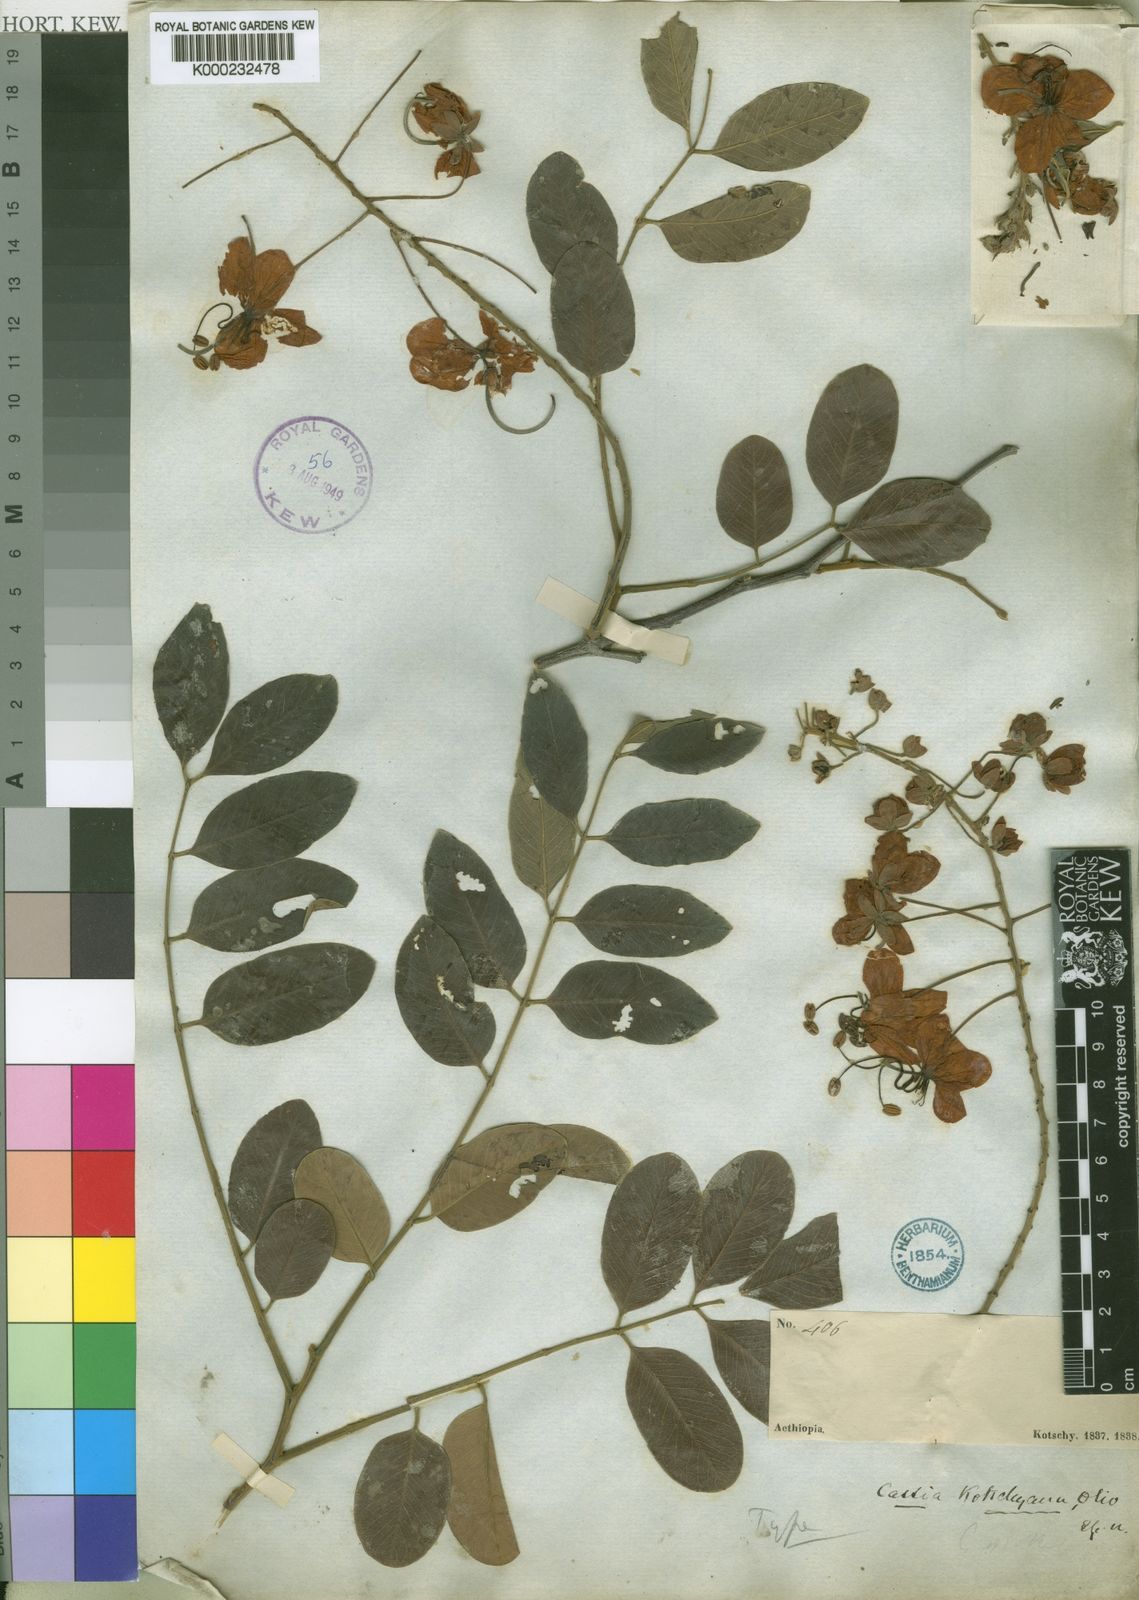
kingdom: Plantae
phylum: Tracheophyta
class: Magnoliopsida
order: Fabales
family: Fabaceae
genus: Cassia
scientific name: Cassia sieberiana
